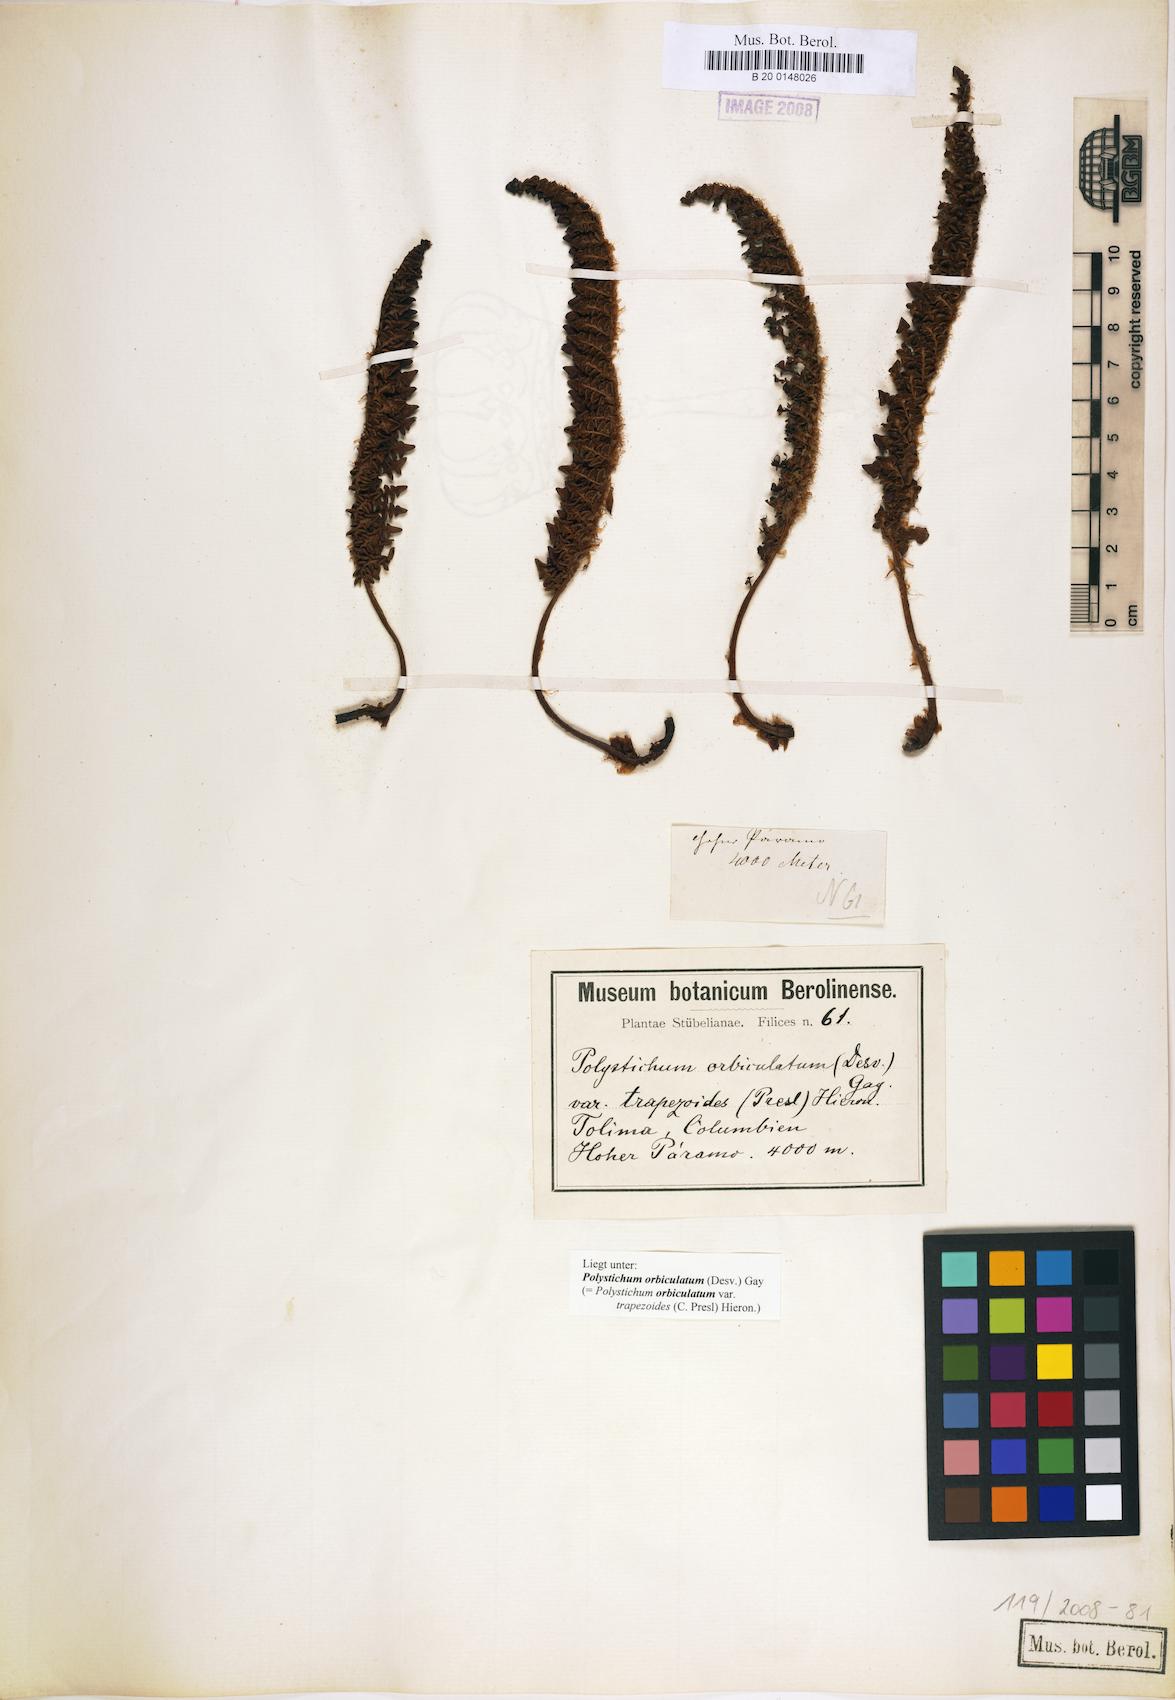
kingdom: Plantae
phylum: Tracheophyta
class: Polypodiopsida
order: Polypodiales
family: Dryopteridaceae
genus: Polystichum
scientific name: Polystichum orbiculatum
